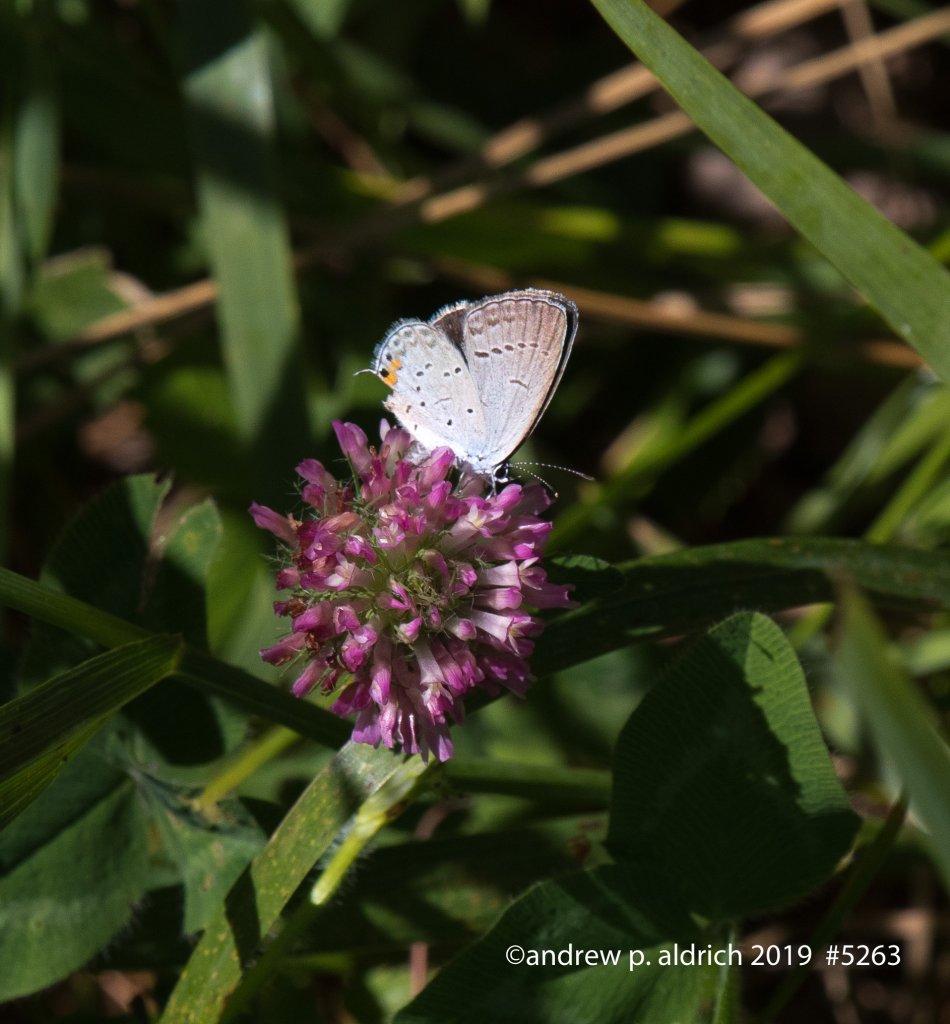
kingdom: Animalia
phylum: Arthropoda
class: Insecta
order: Lepidoptera
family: Lycaenidae
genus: Elkalyce
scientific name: Elkalyce comyntas
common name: Eastern Tailed-Blue
